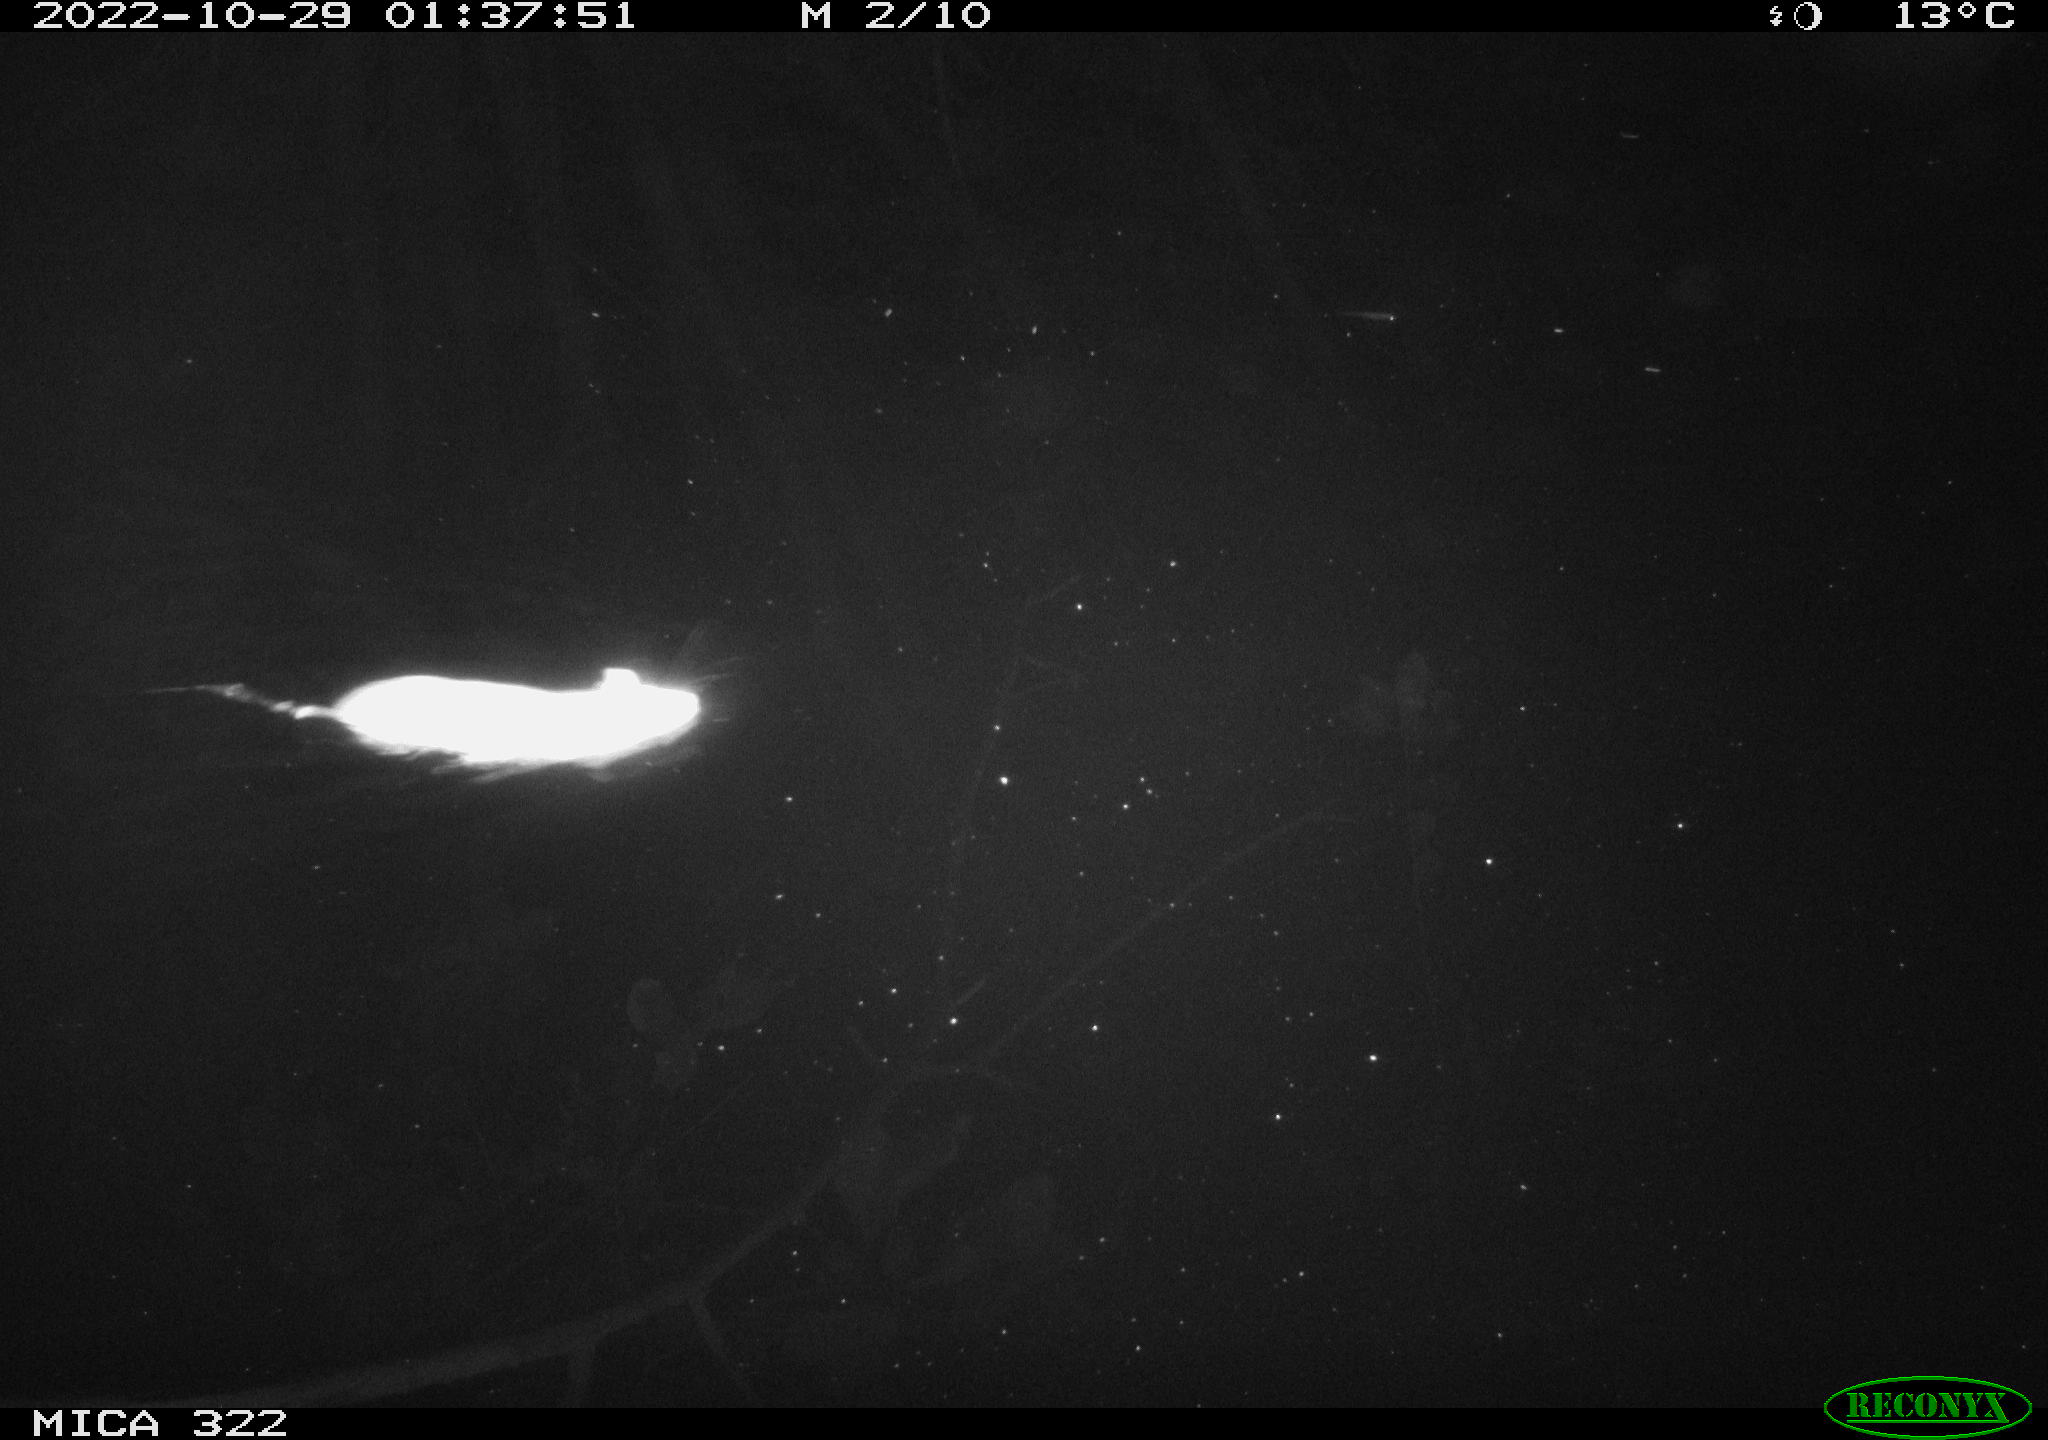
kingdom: Animalia
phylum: Chordata
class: Mammalia
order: Rodentia
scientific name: Rodentia
